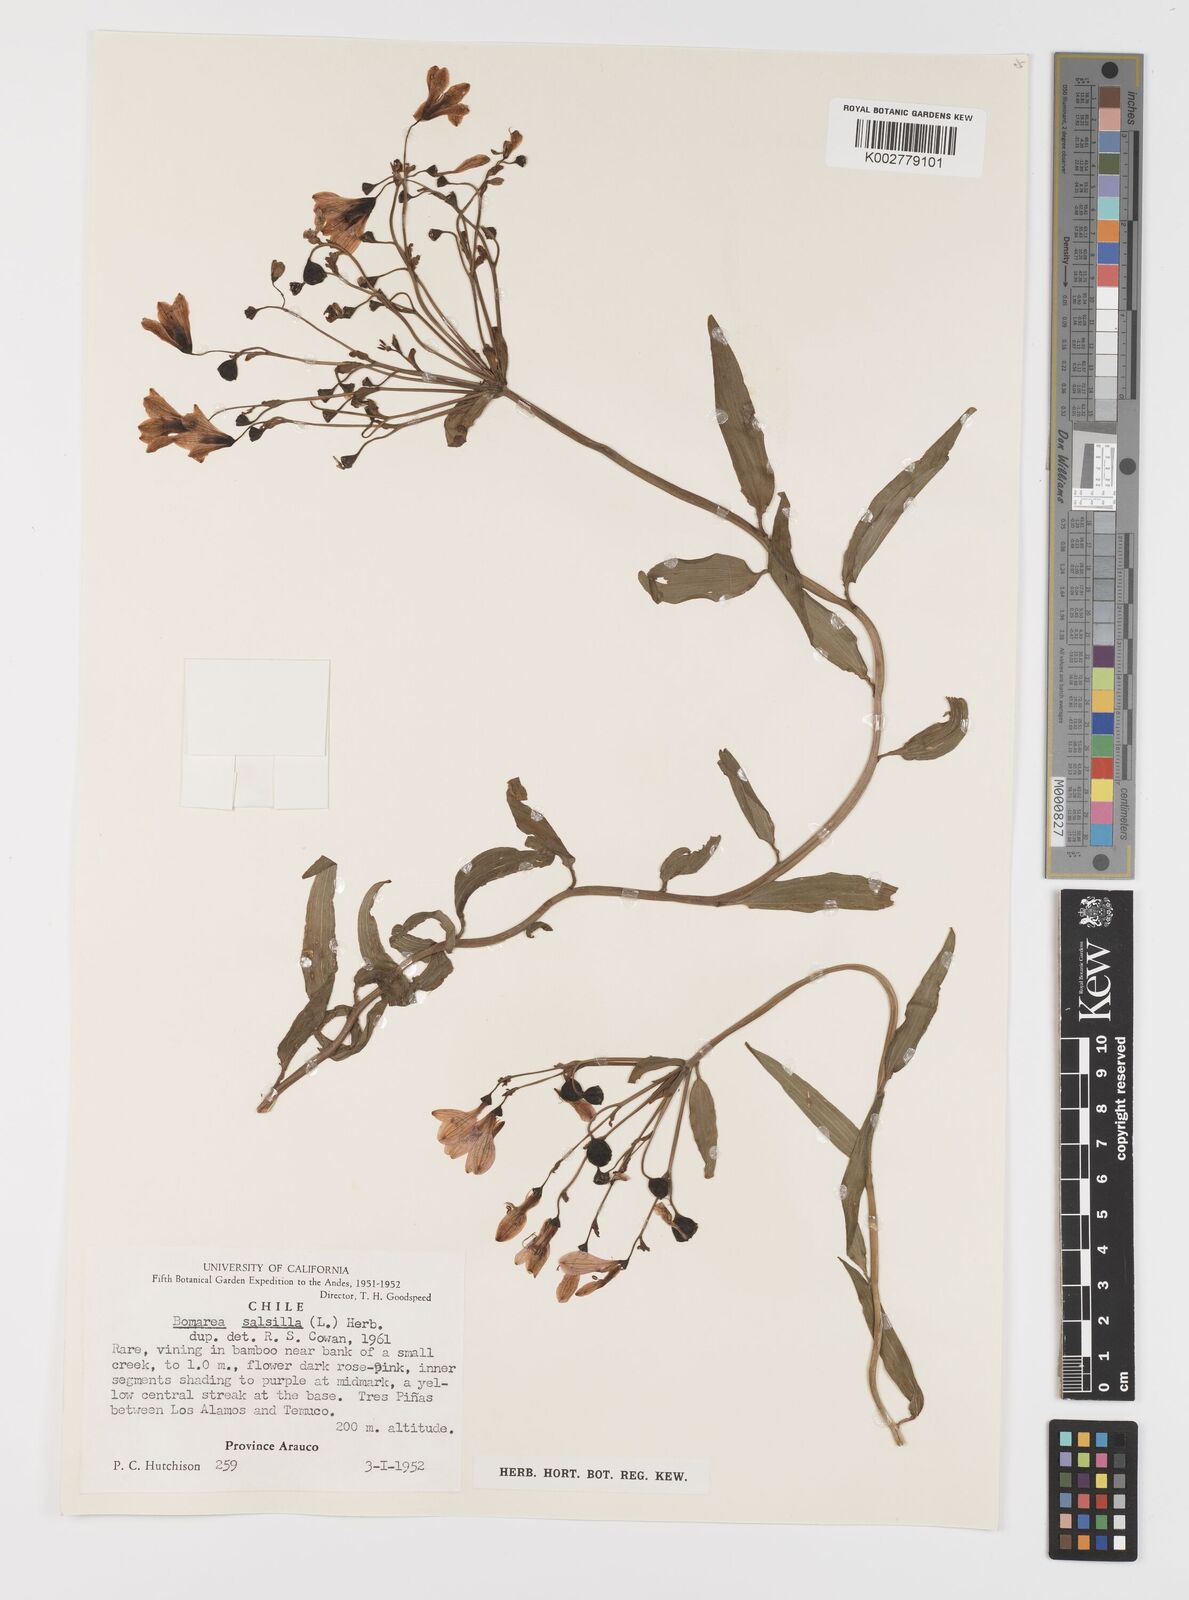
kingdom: Plantae
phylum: Tracheophyta
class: Liliopsida
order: Liliales
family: Alstroemeriaceae
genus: Bomarea
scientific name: Bomarea edulis
